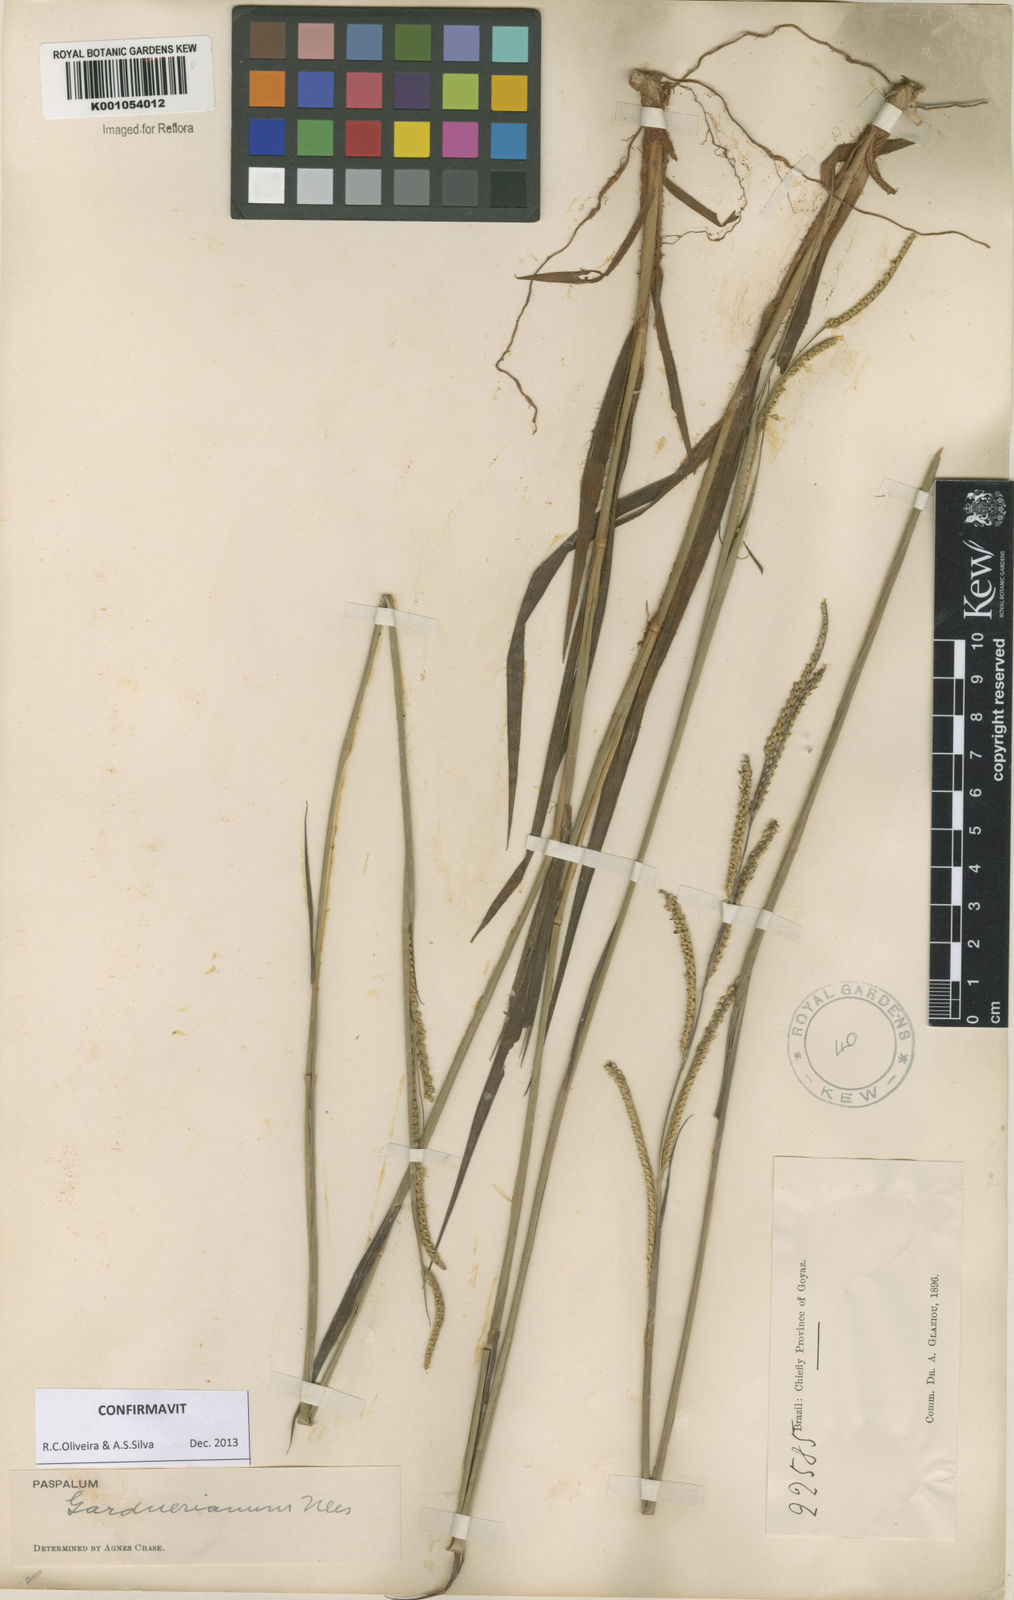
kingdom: Plantae
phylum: Tracheophyta
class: Liliopsida
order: Poales
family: Poaceae
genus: Paspalum
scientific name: Paspalum gardnerianum
